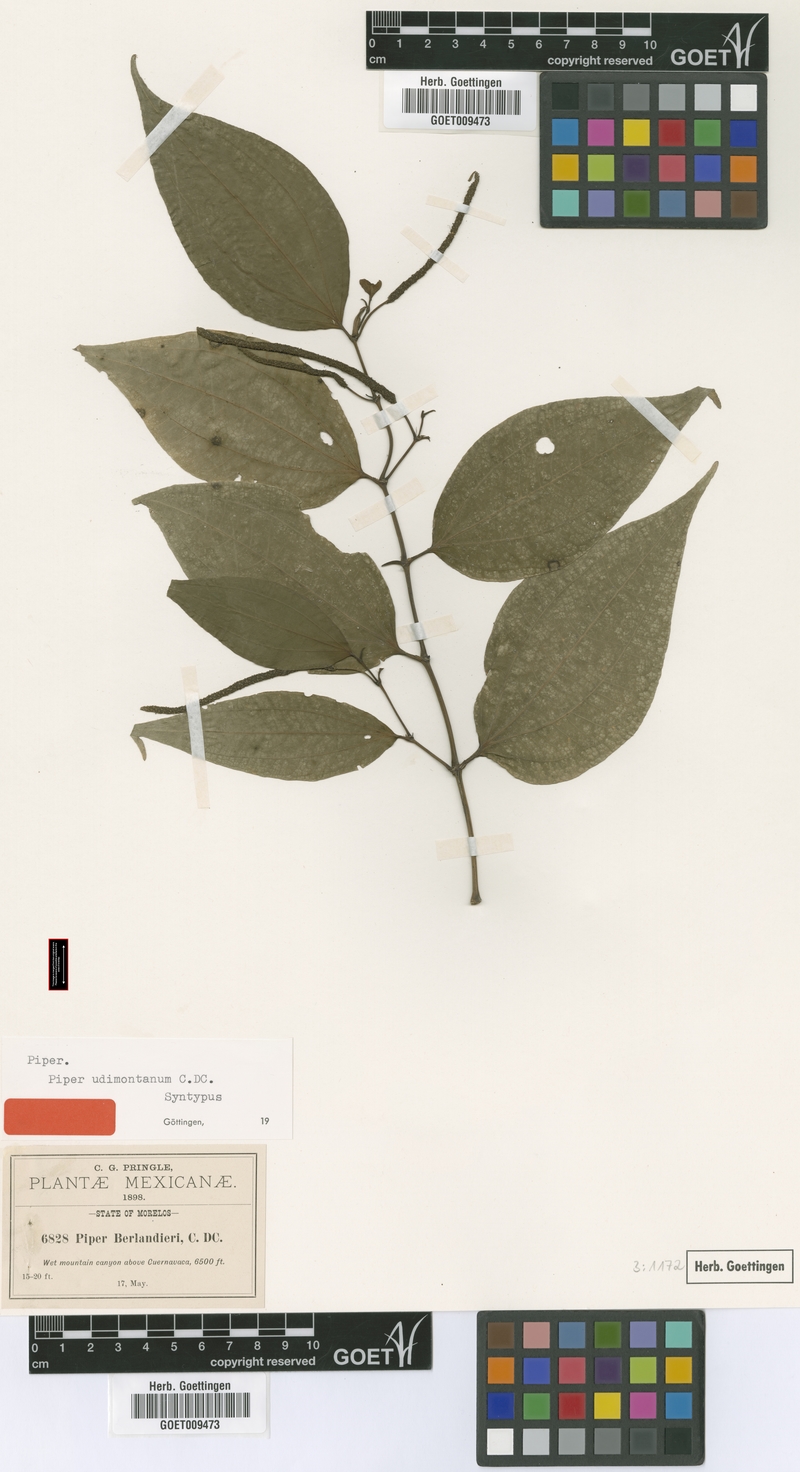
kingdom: Plantae
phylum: Tracheophyta
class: Magnoliopsida
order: Piperales
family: Piperaceae
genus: Piper
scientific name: Piper udimontanum
